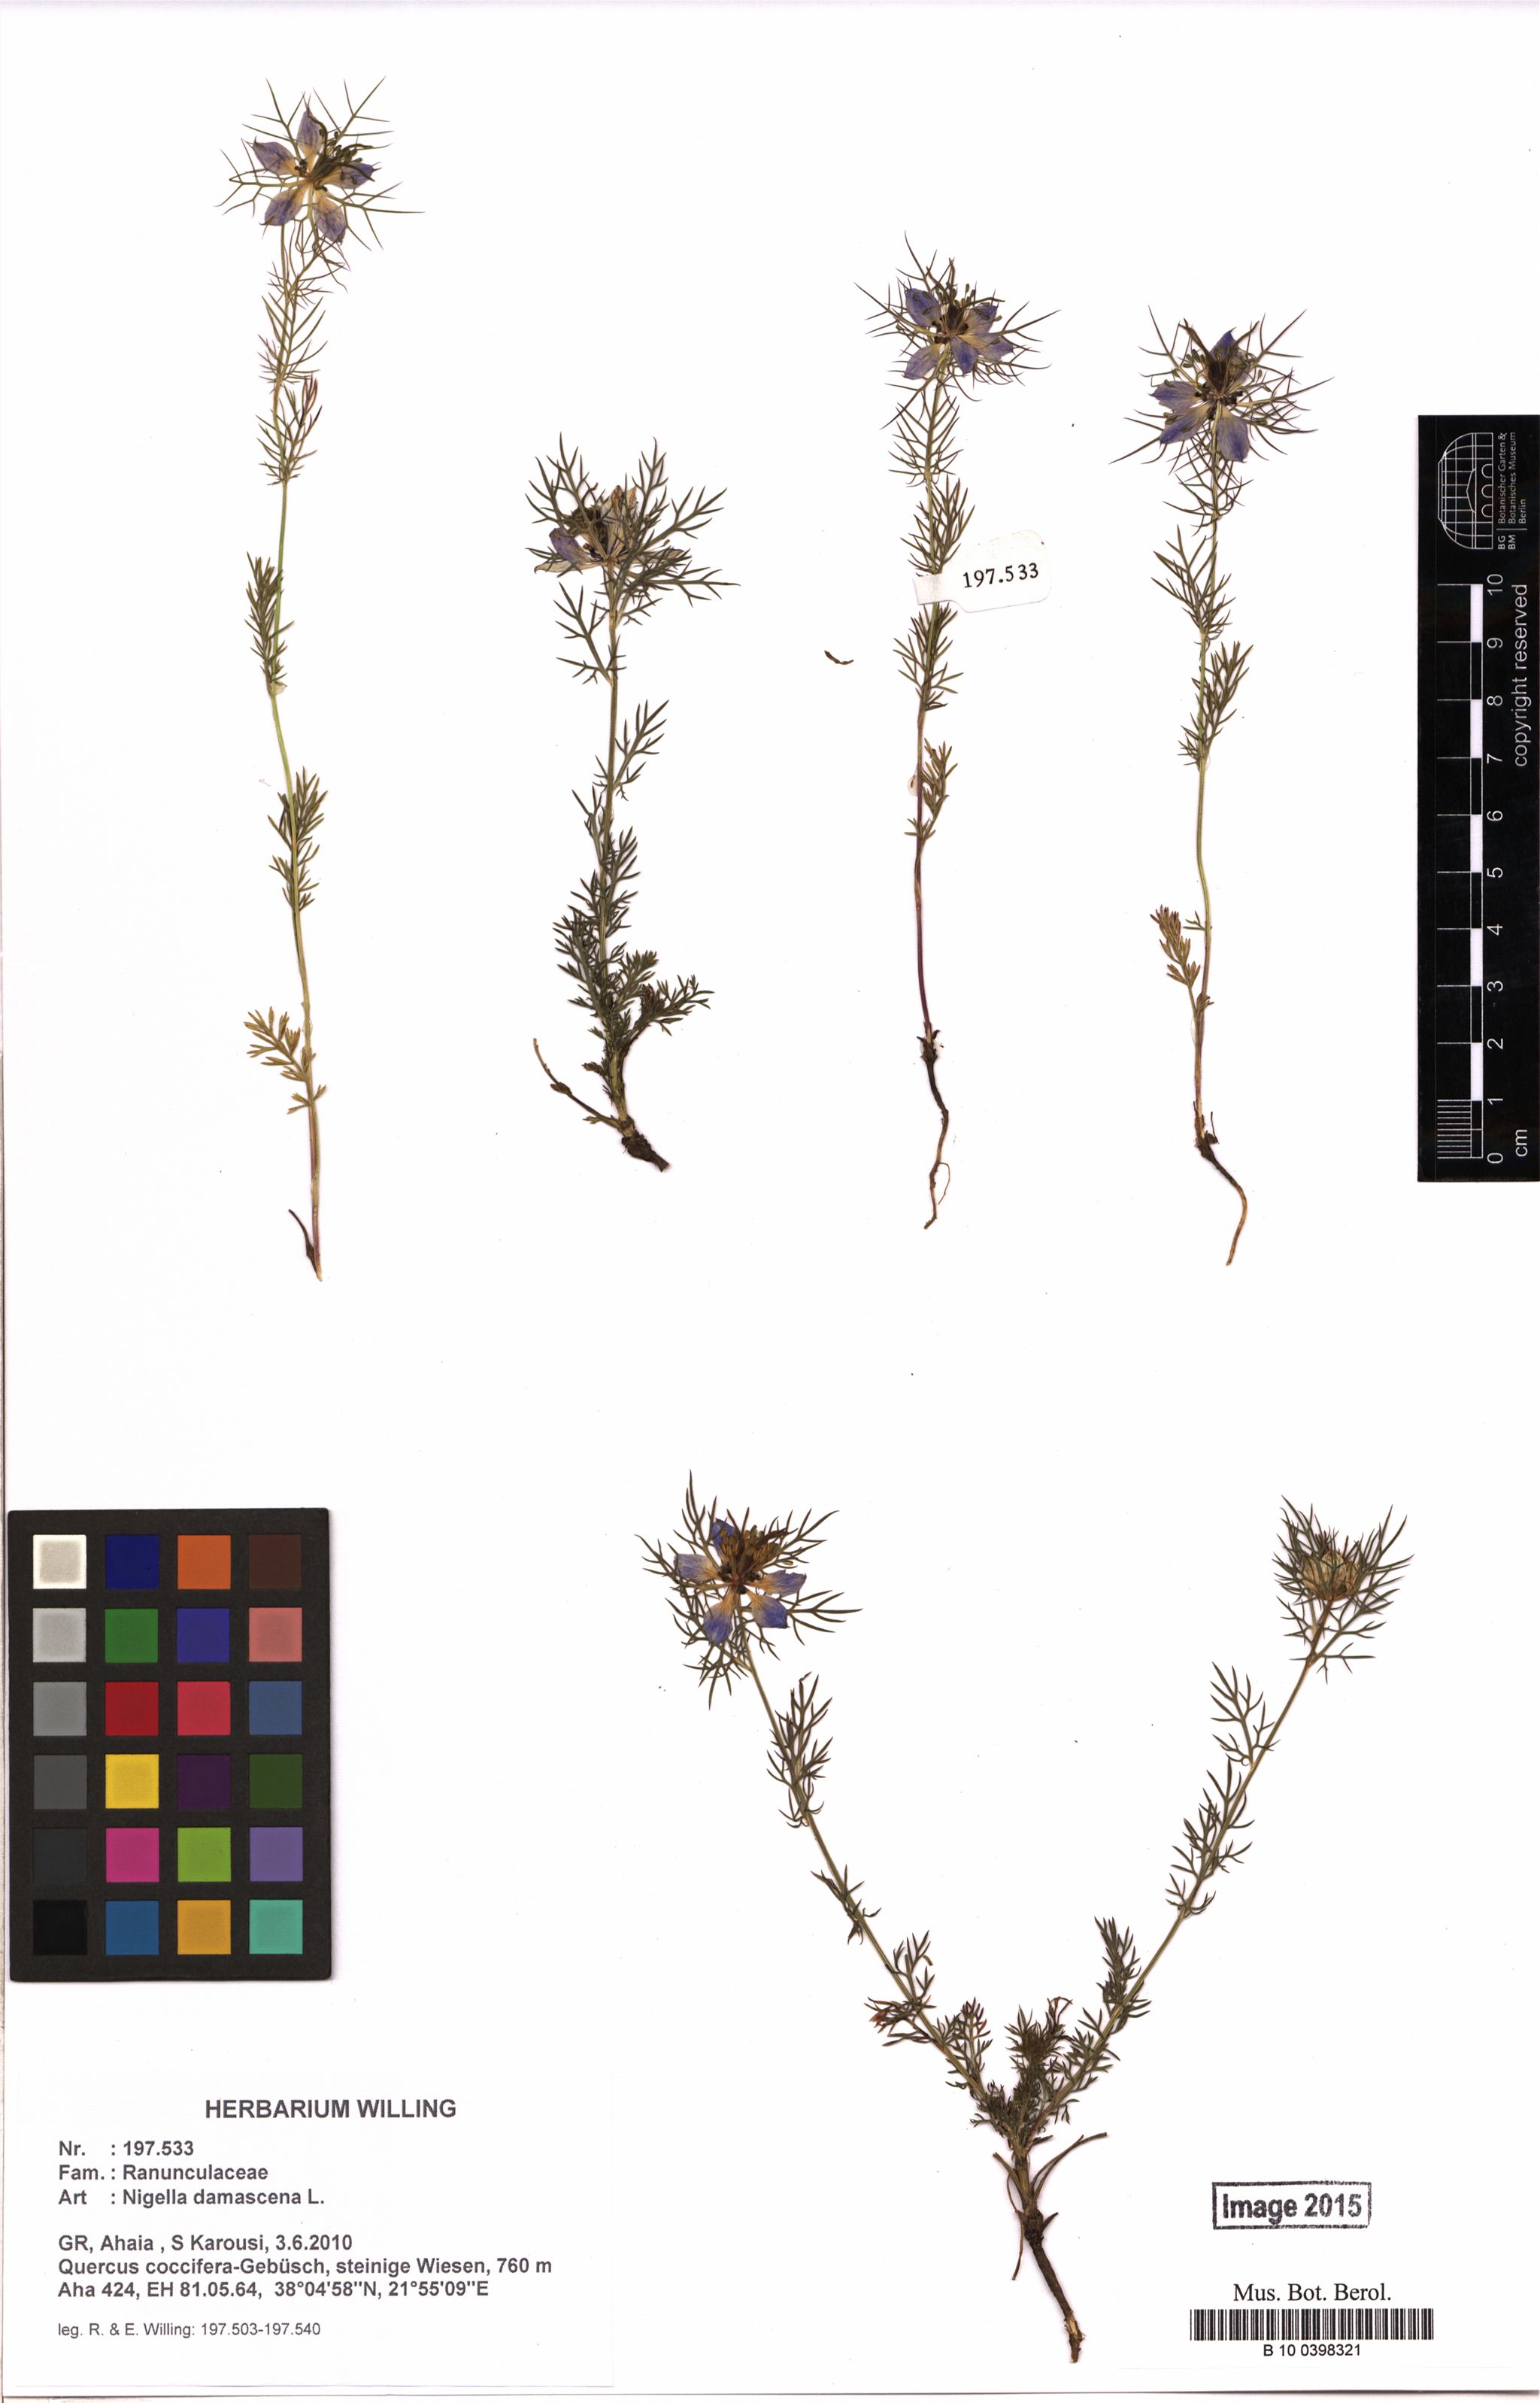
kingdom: Plantae
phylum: Tracheophyta
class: Magnoliopsida
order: Ranunculales
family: Ranunculaceae
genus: Nigella
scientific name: Nigella damascena
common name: Love-in-a-mist
